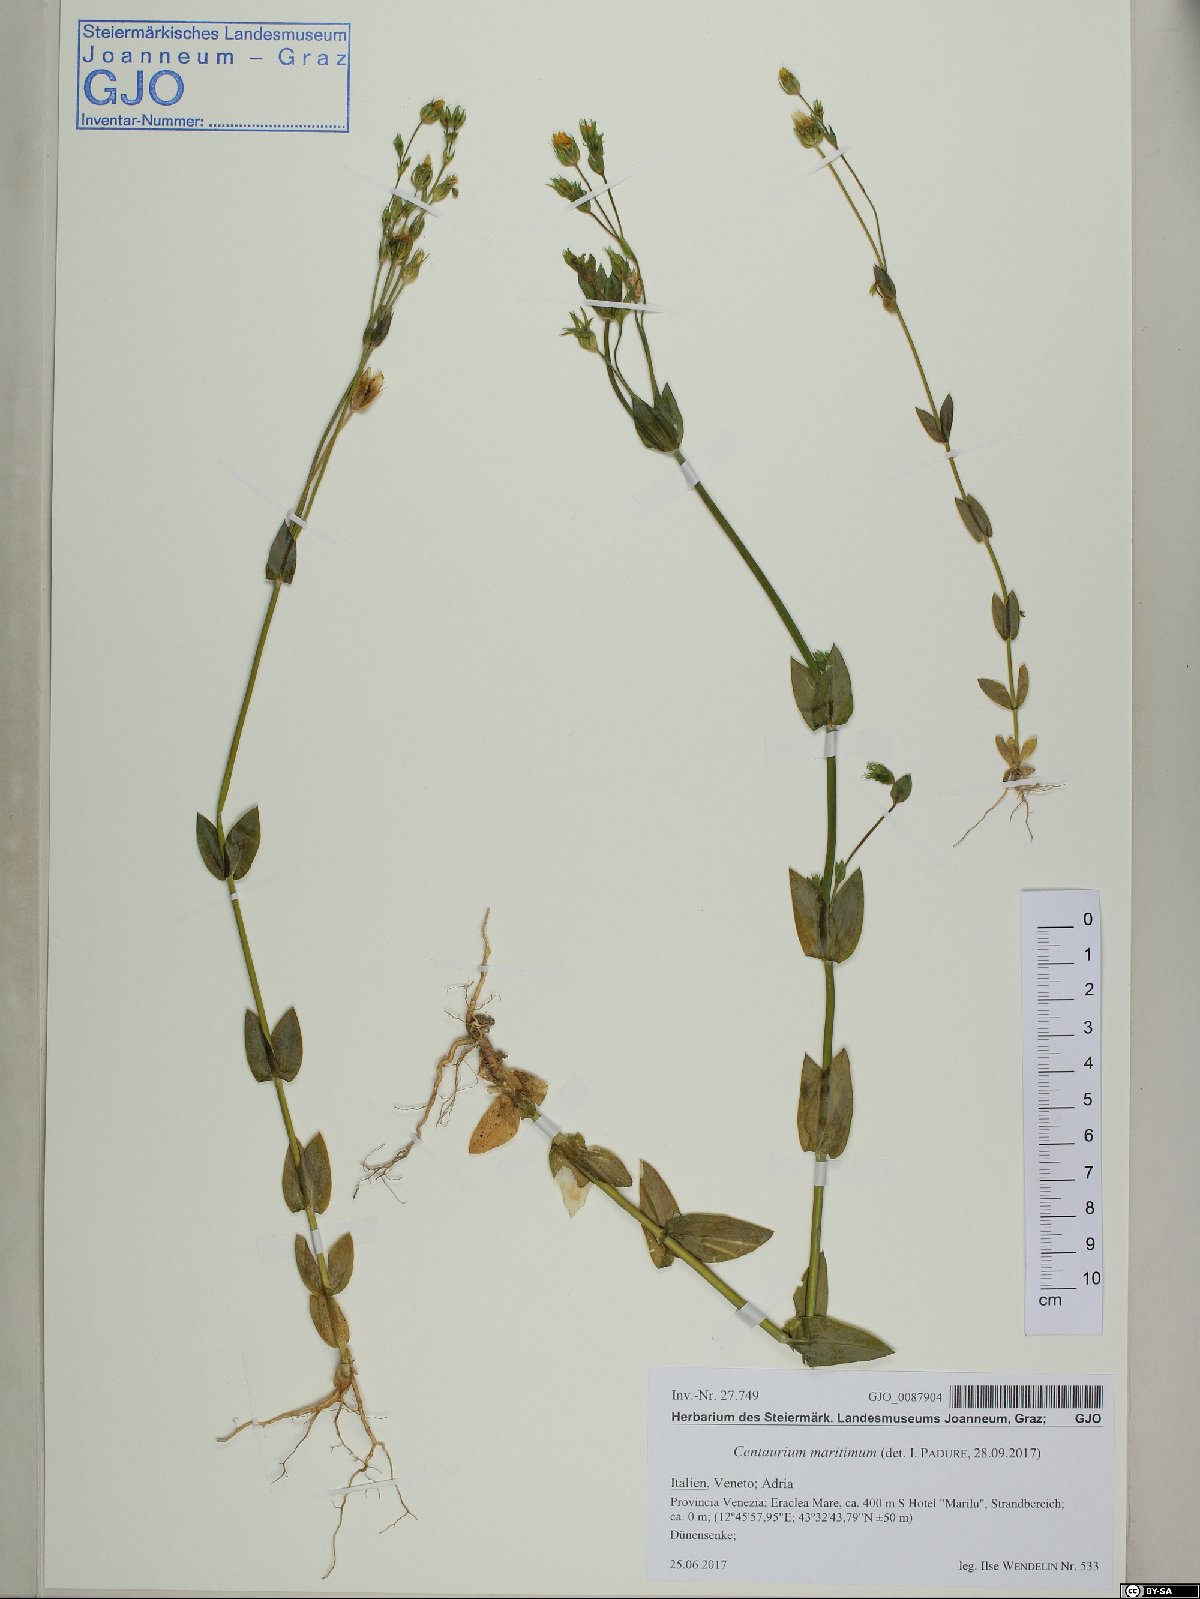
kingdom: Plantae
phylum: Tracheophyta
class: Magnoliopsida
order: Gentianales
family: Gentianaceae
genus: Centaurium
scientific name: Centaurium maritimum
